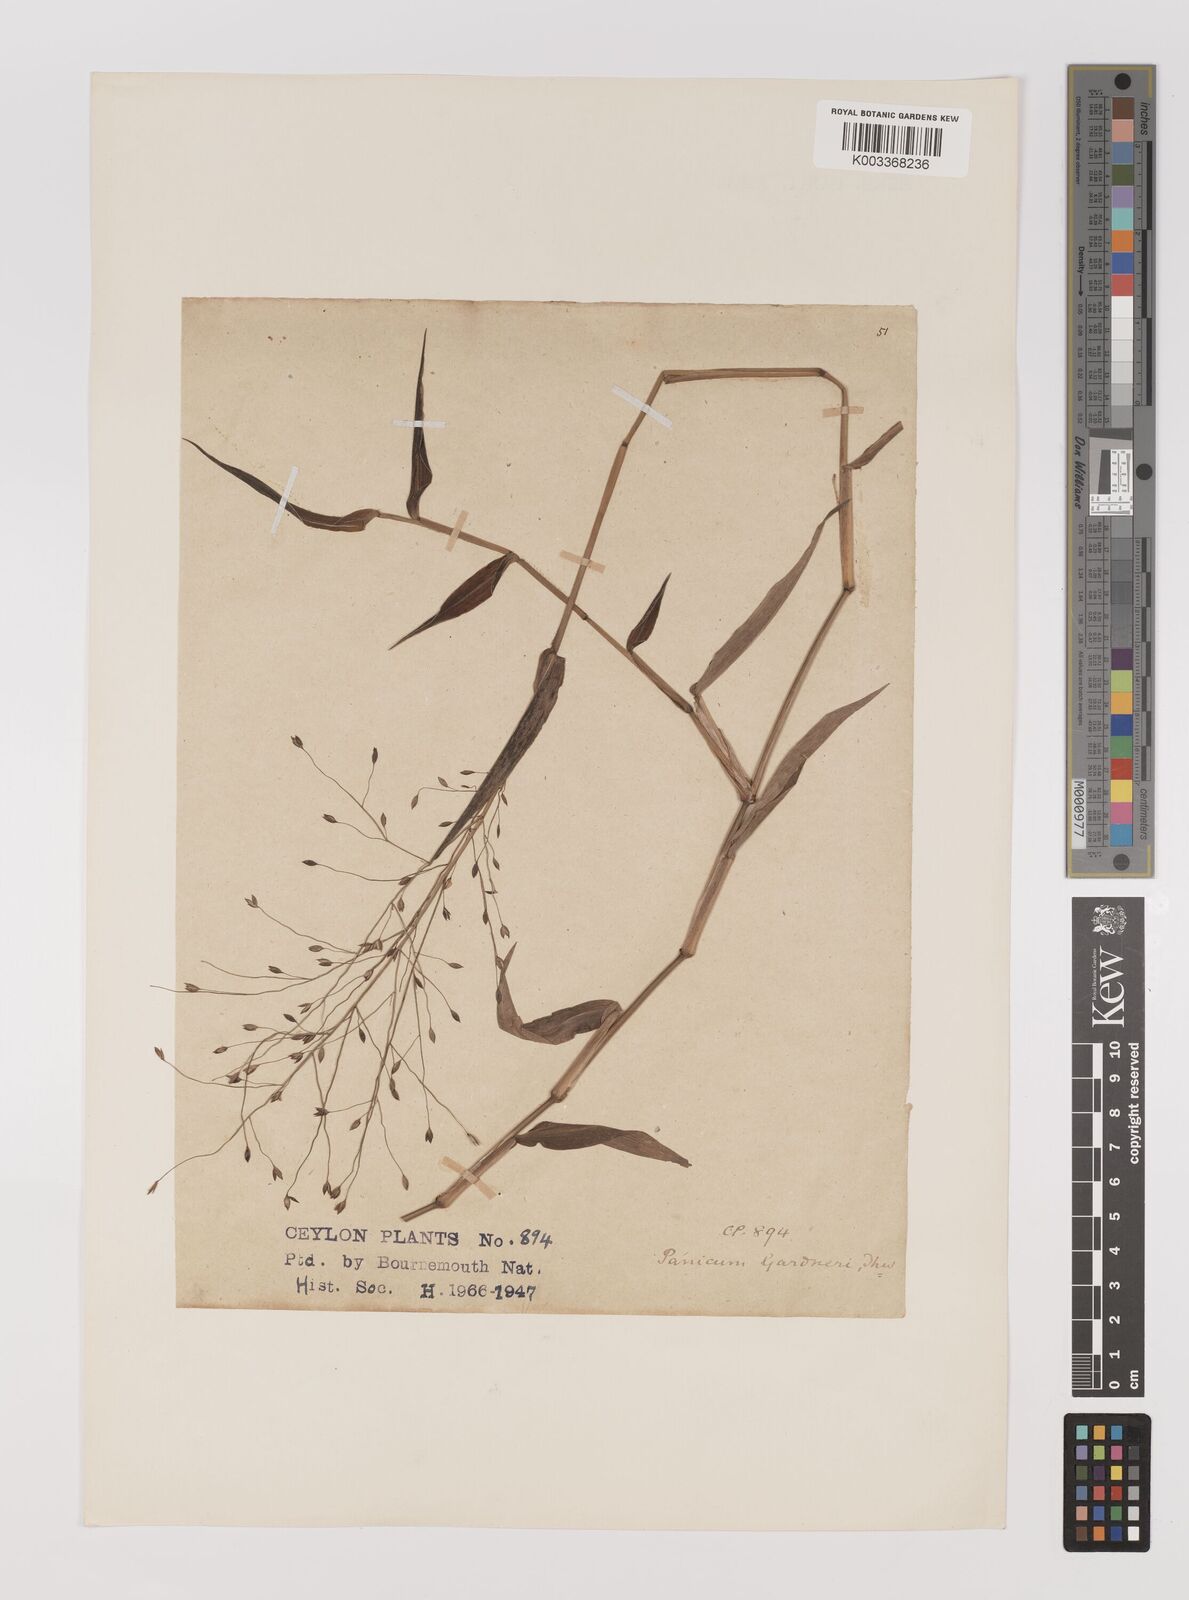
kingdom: Plantae
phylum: Tracheophyta
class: Liliopsida
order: Poales
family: Poaceae
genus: Panicum
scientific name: Panicum gardneri
